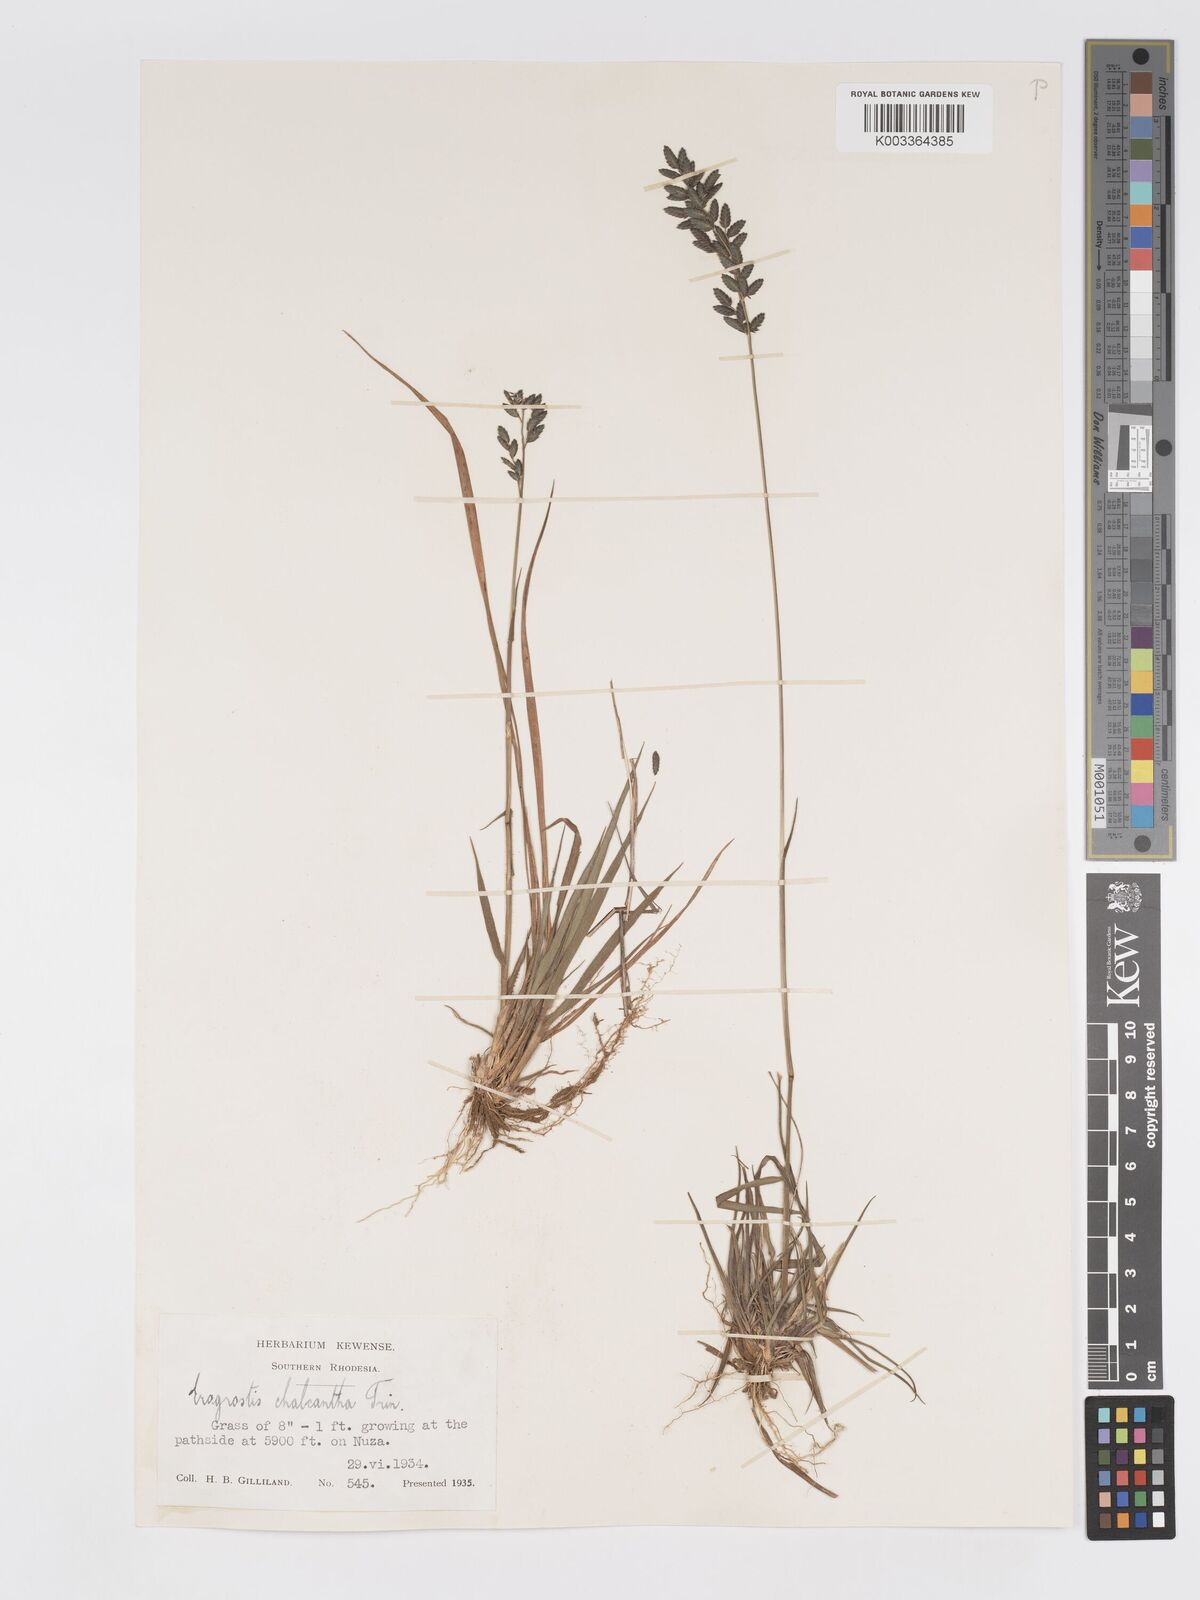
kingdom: Plantae
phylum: Tracheophyta
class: Liliopsida
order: Poales
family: Poaceae
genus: Eragrostis
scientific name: Eragrostis racemosa
